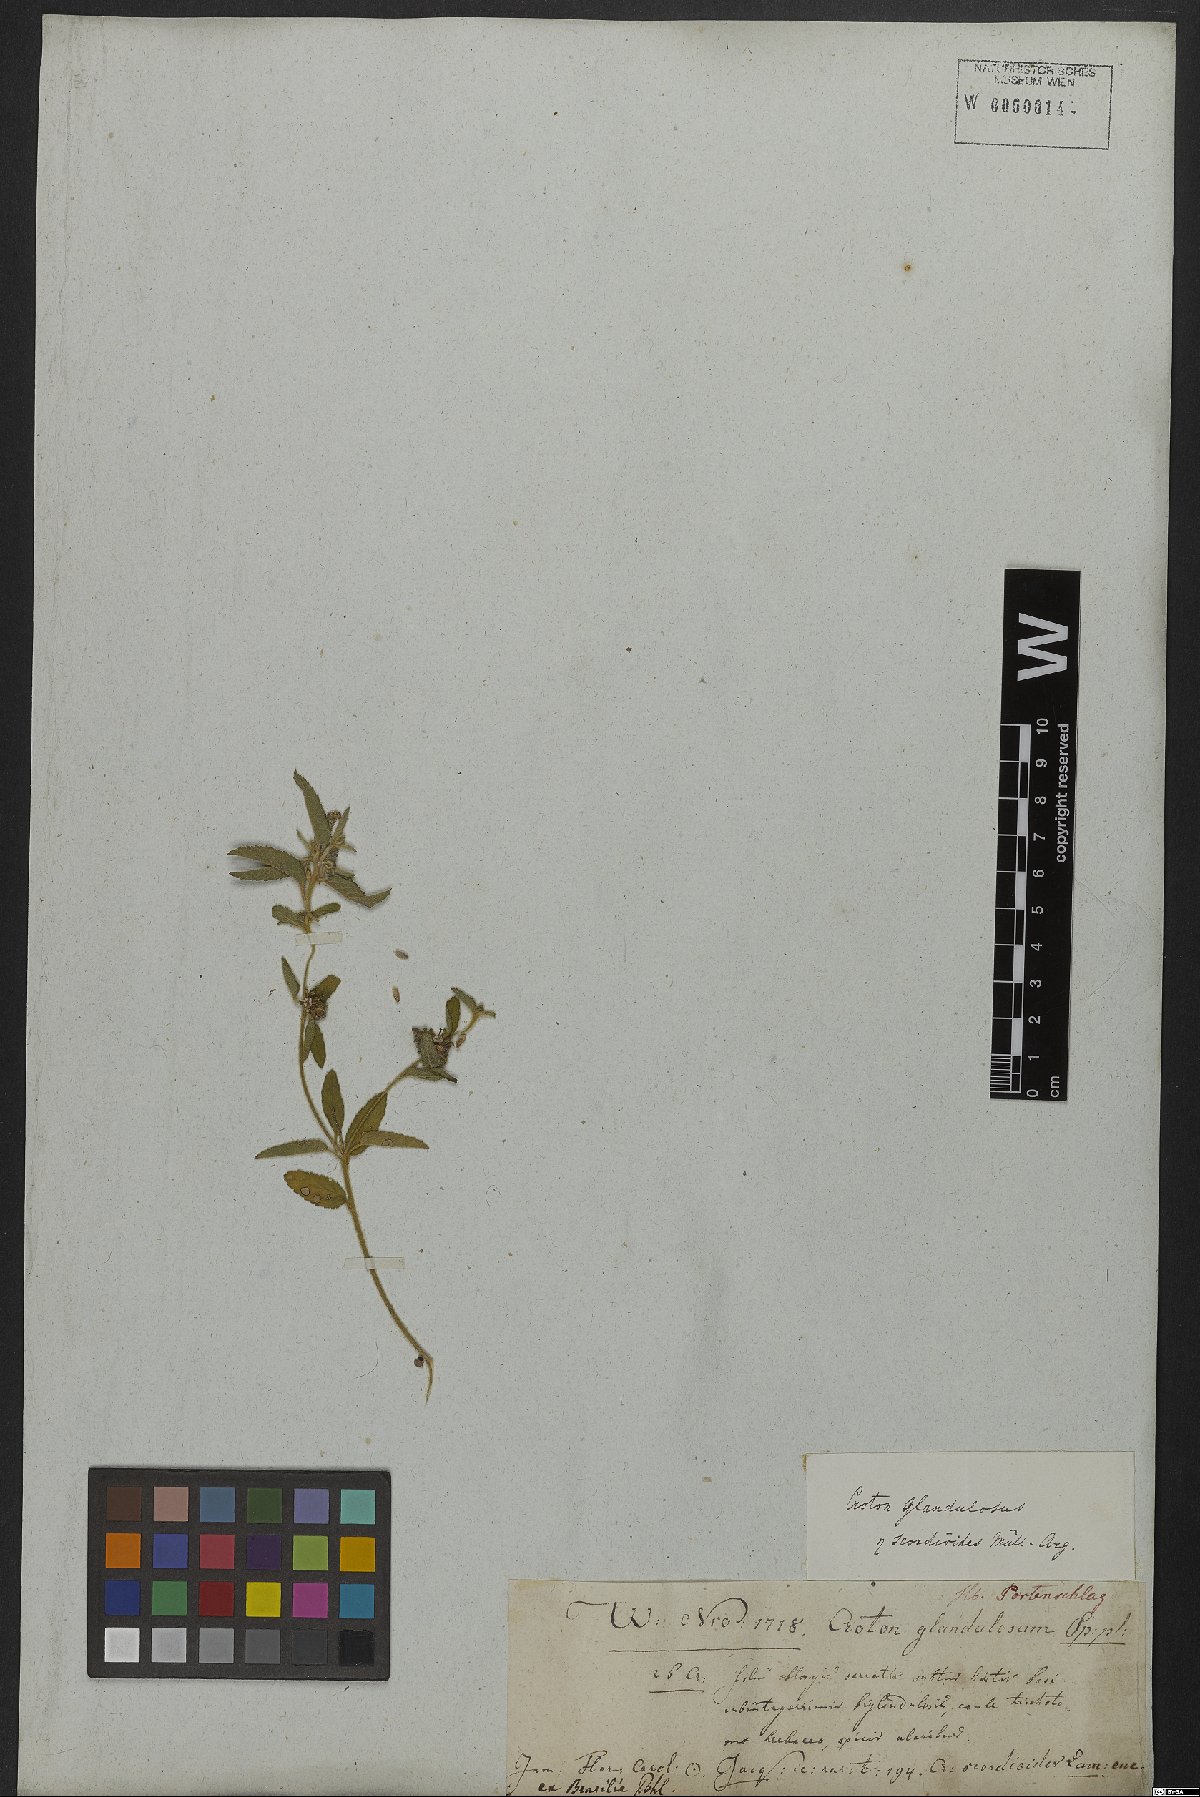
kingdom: Plantae
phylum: Tracheophyta
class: Magnoliopsida
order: Malpighiales
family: Euphorbiaceae
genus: Croton
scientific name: Croton glandulosus
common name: Tropic croton
